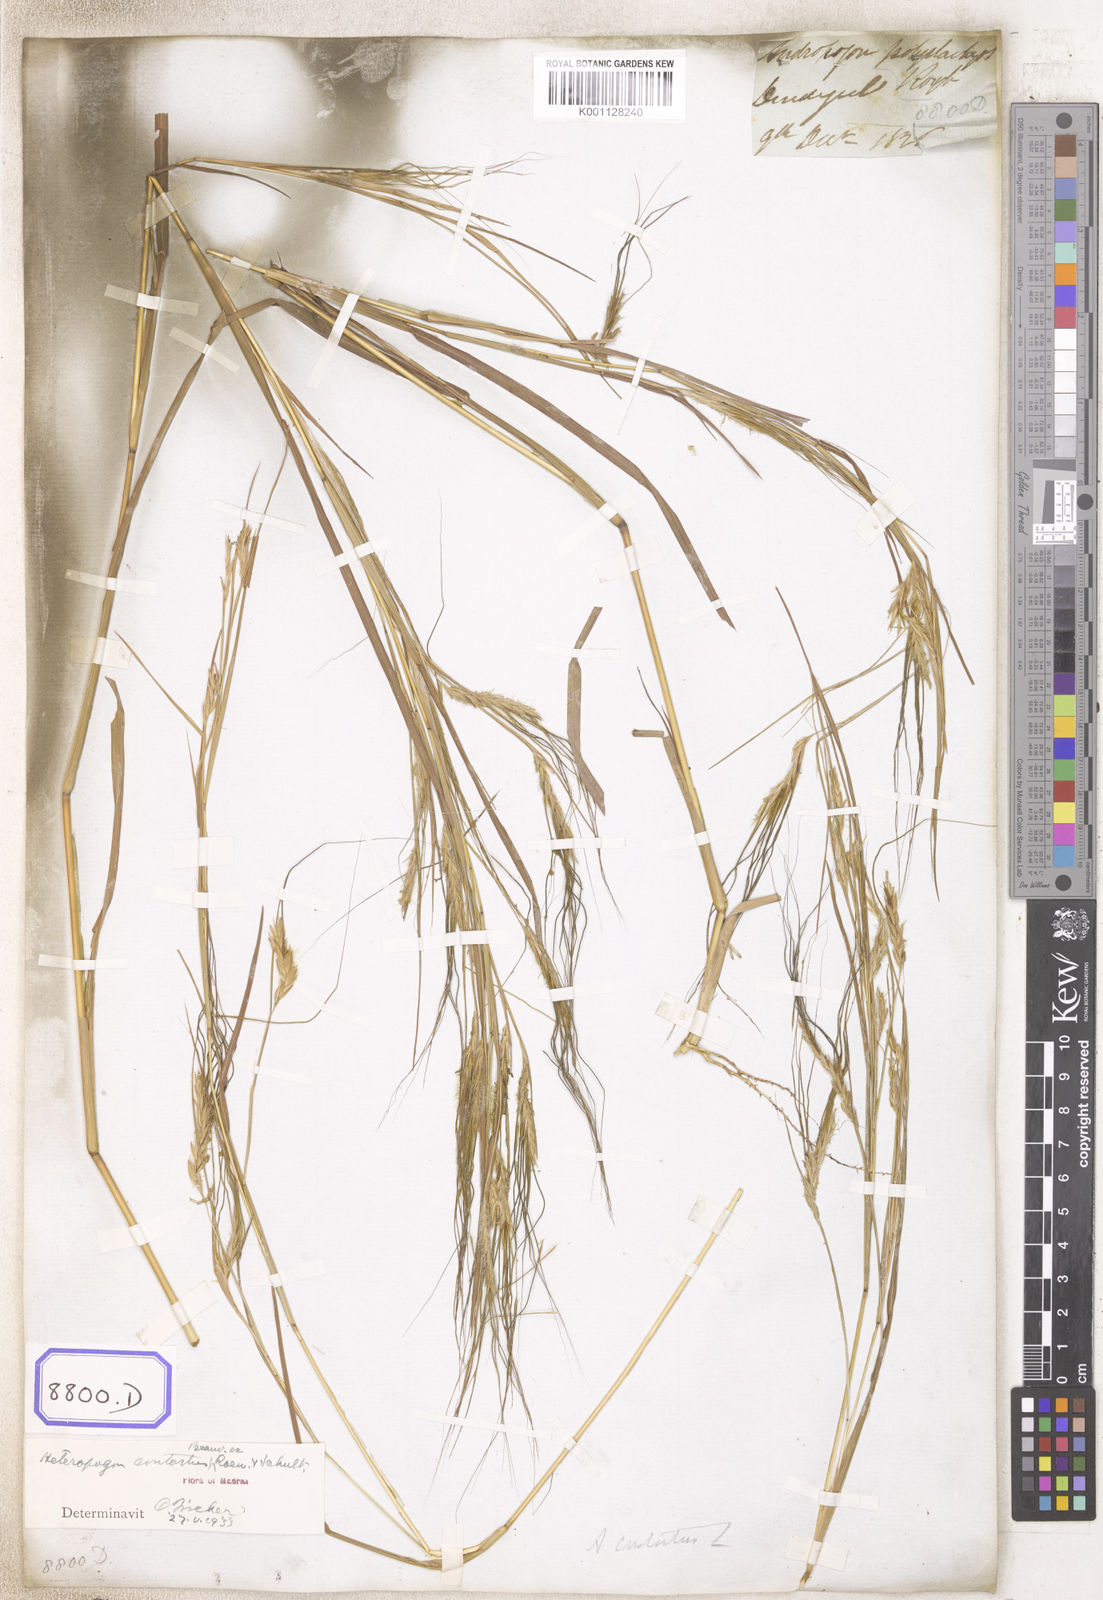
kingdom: Plantae
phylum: Tracheophyta
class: Liliopsida
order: Poales
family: Poaceae
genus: Heteropogon
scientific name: Heteropogon contortus
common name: Tanglehead
